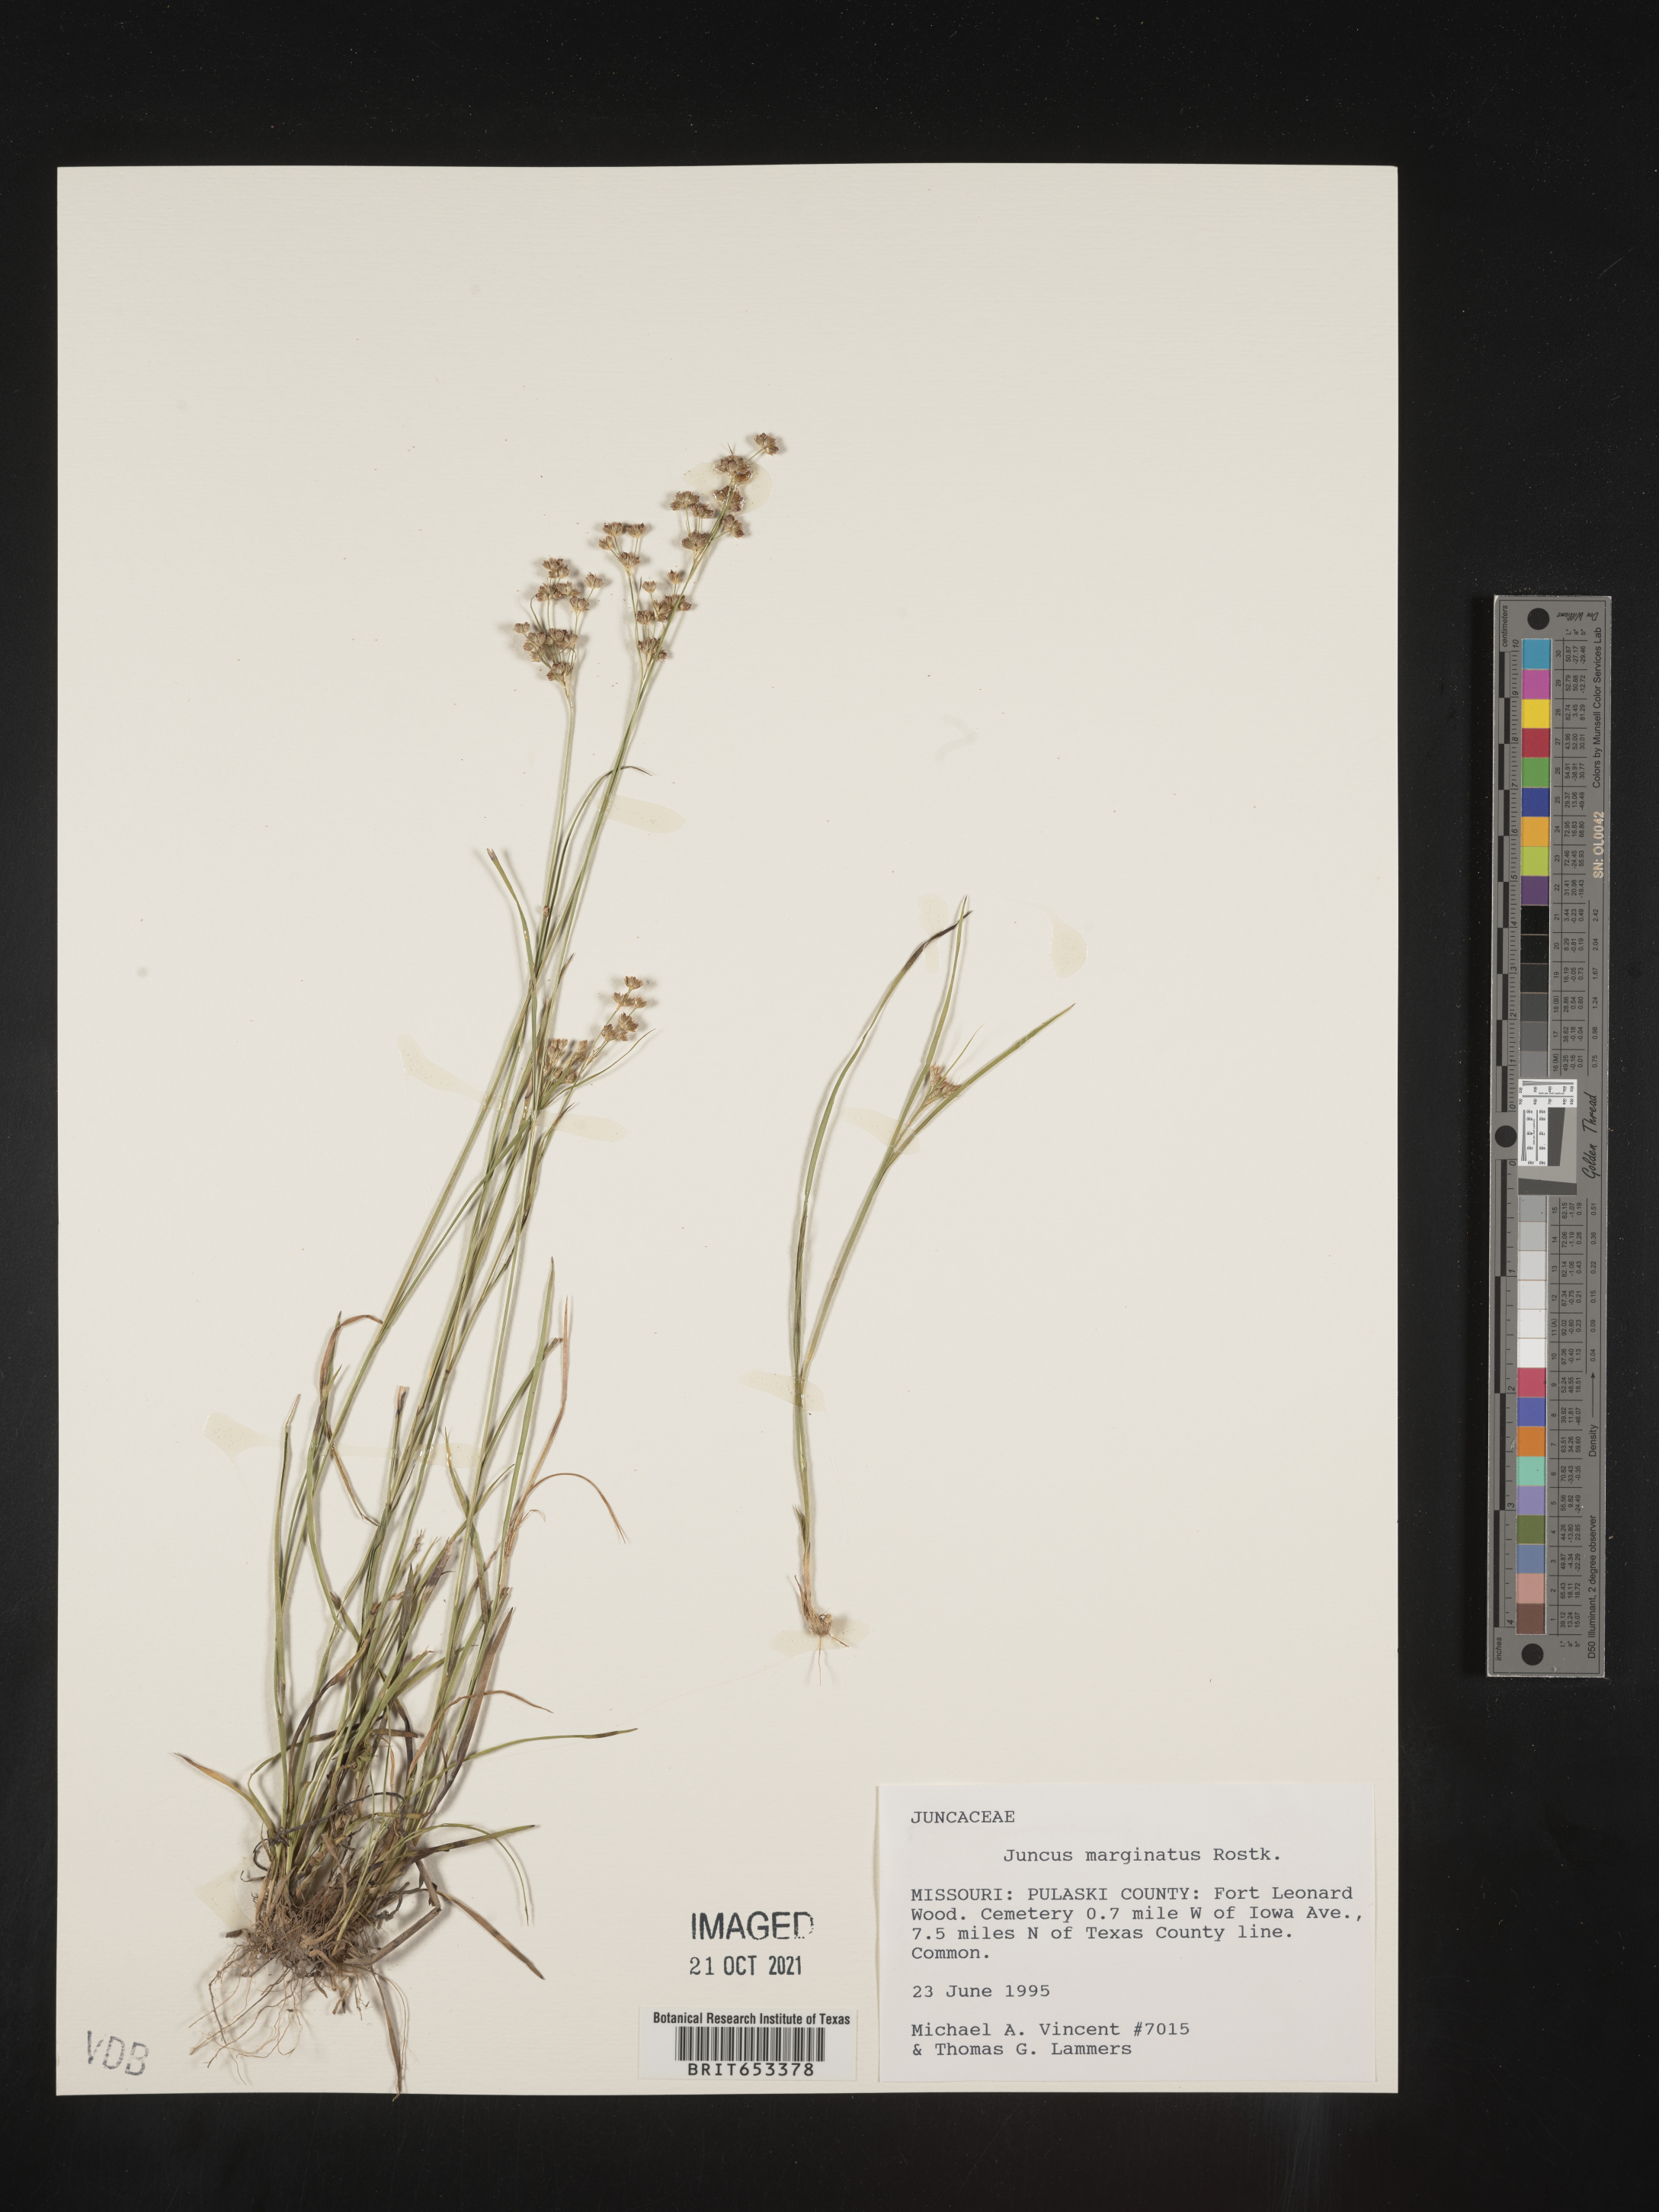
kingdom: Plantae
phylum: Tracheophyta
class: Liliopsida
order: Poales
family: Juncaceae
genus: Juncus
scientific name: Juncus marginatus
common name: Grass-leaf rush
